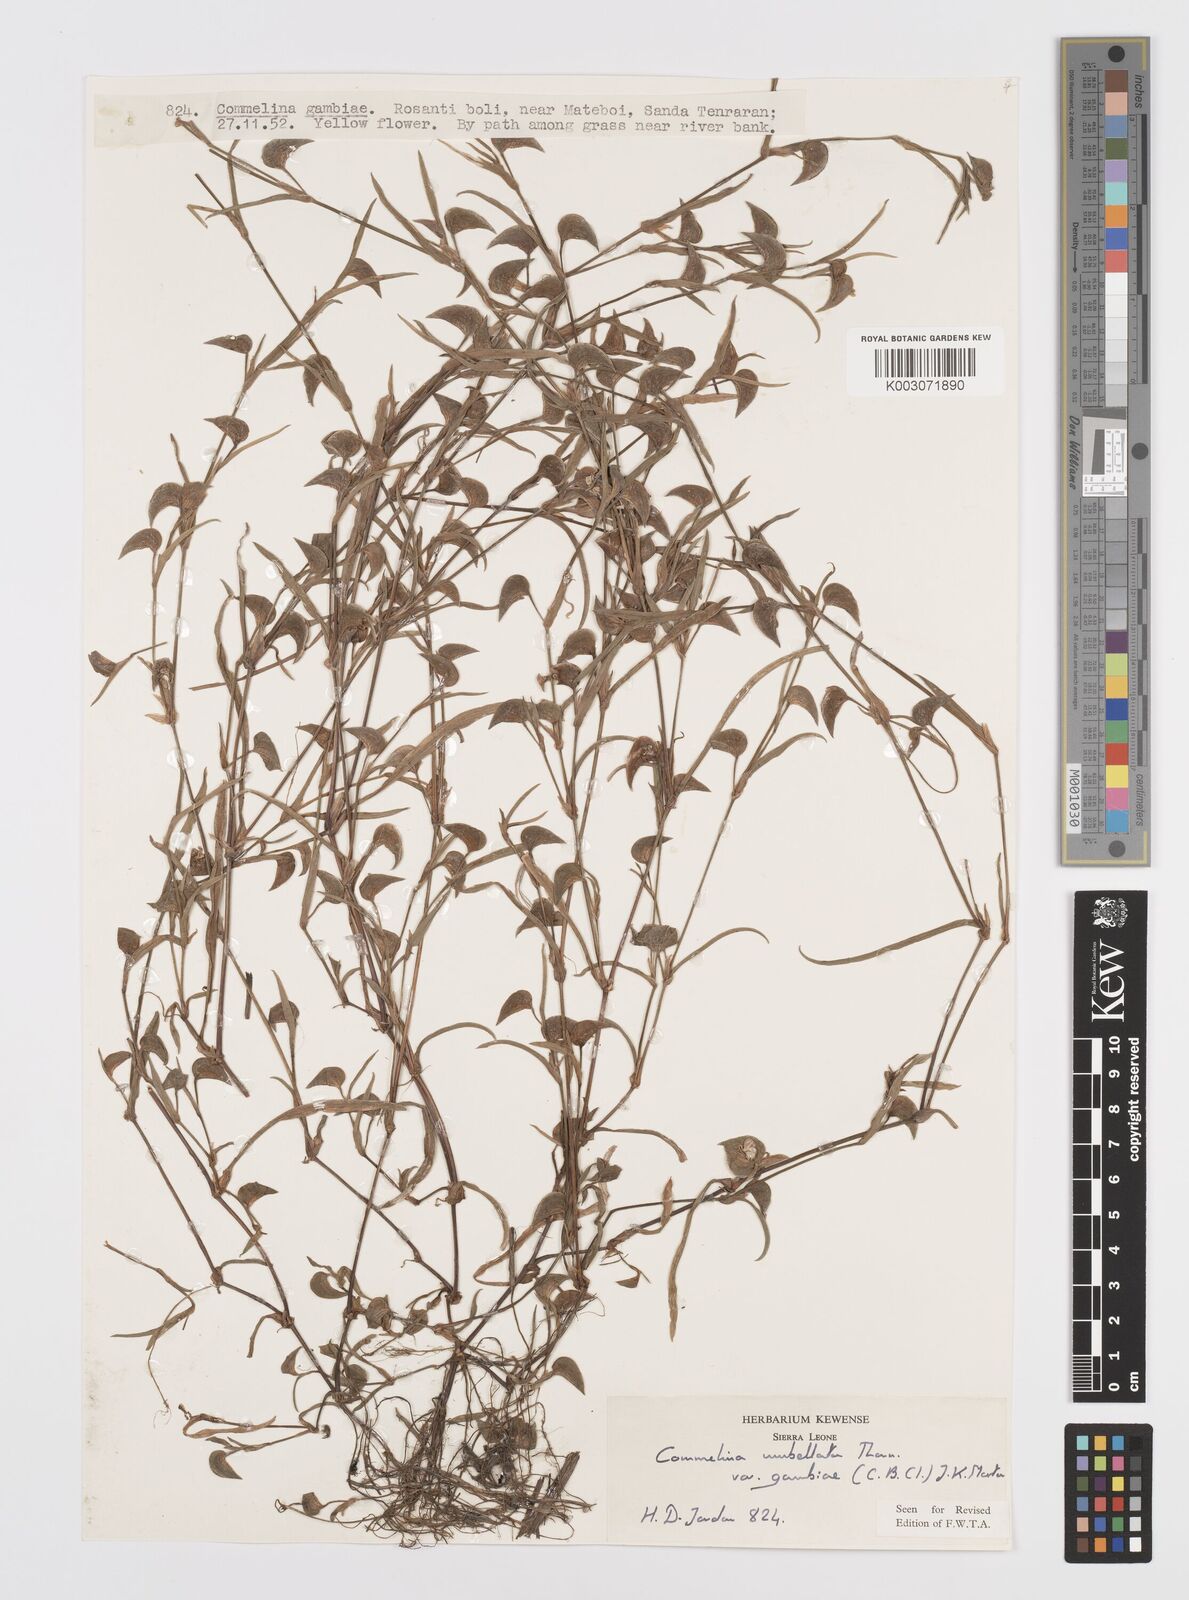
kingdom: Plantae
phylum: Tracheophyta
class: Liliopsida
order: Commelinales
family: Commelinaceae
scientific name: Commelinaceae
